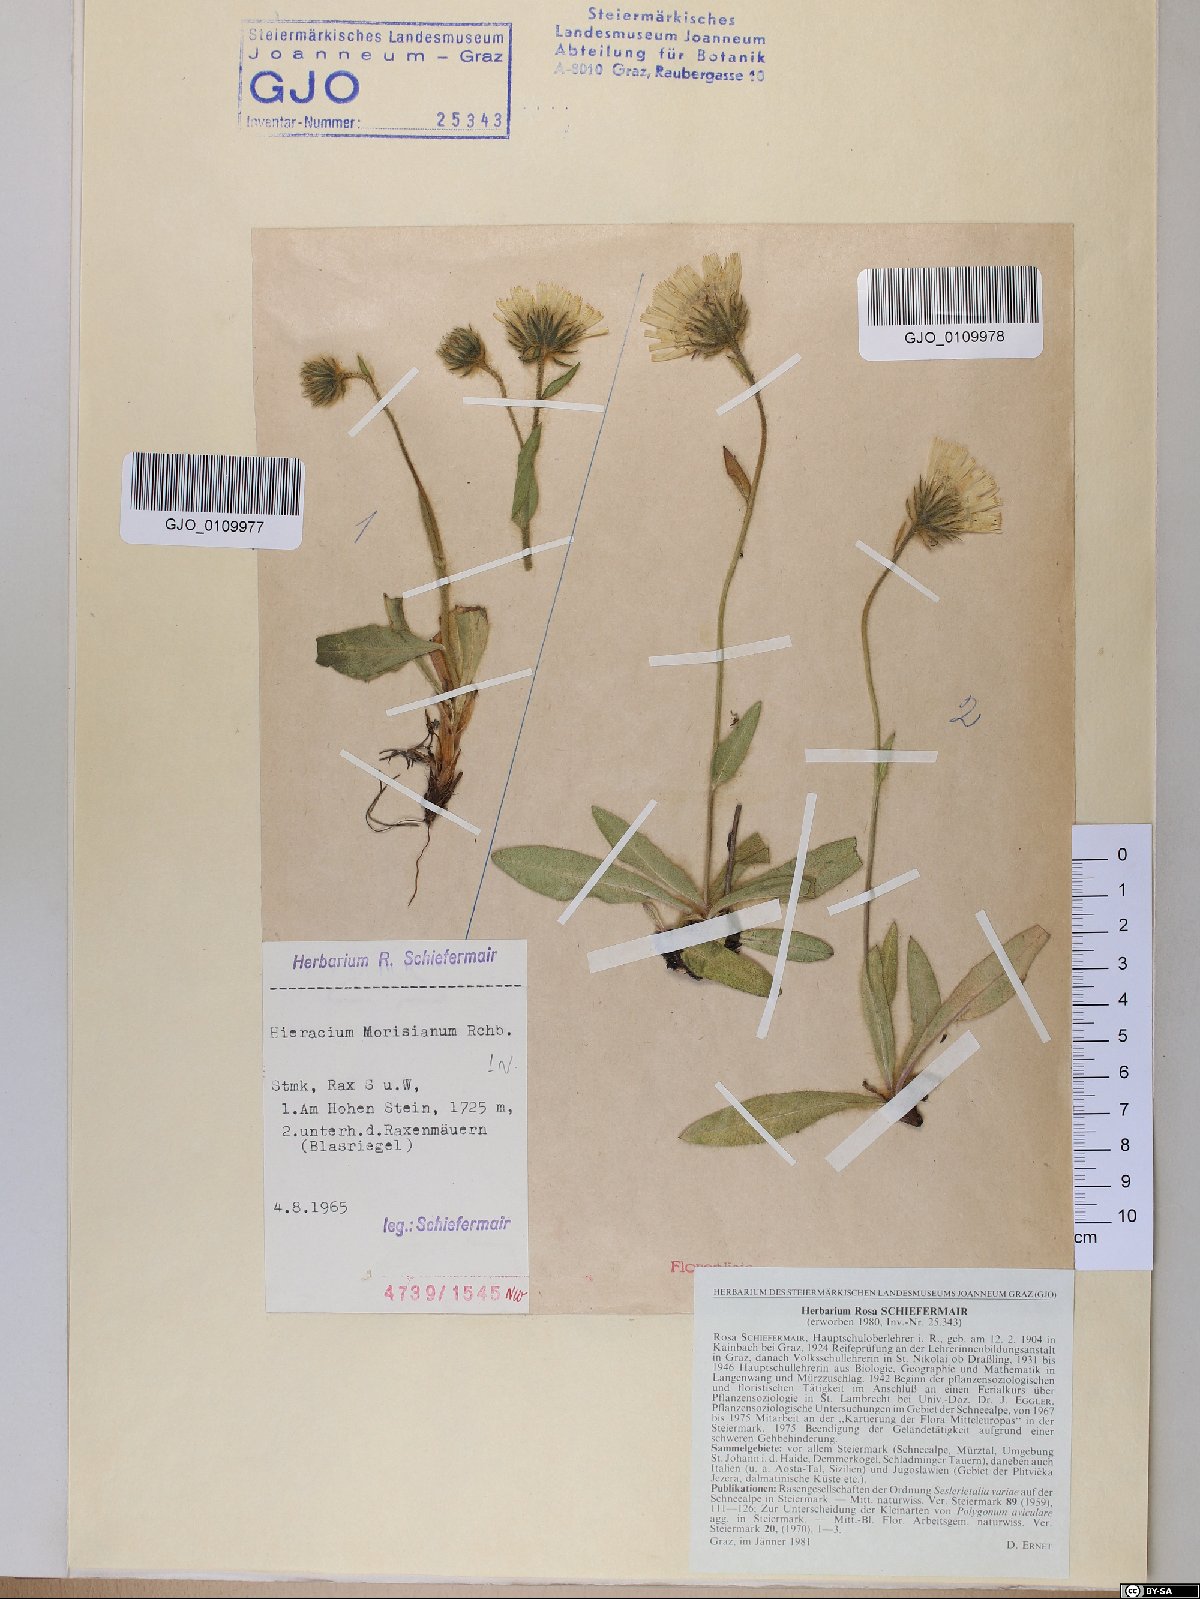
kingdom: Plantae
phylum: Tracheophyta
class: Magnoliopsida
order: Asterales
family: Asteraceae
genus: Hieracium
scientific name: Hieracium pilosum
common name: Fimbriate-pitted hawkweed
